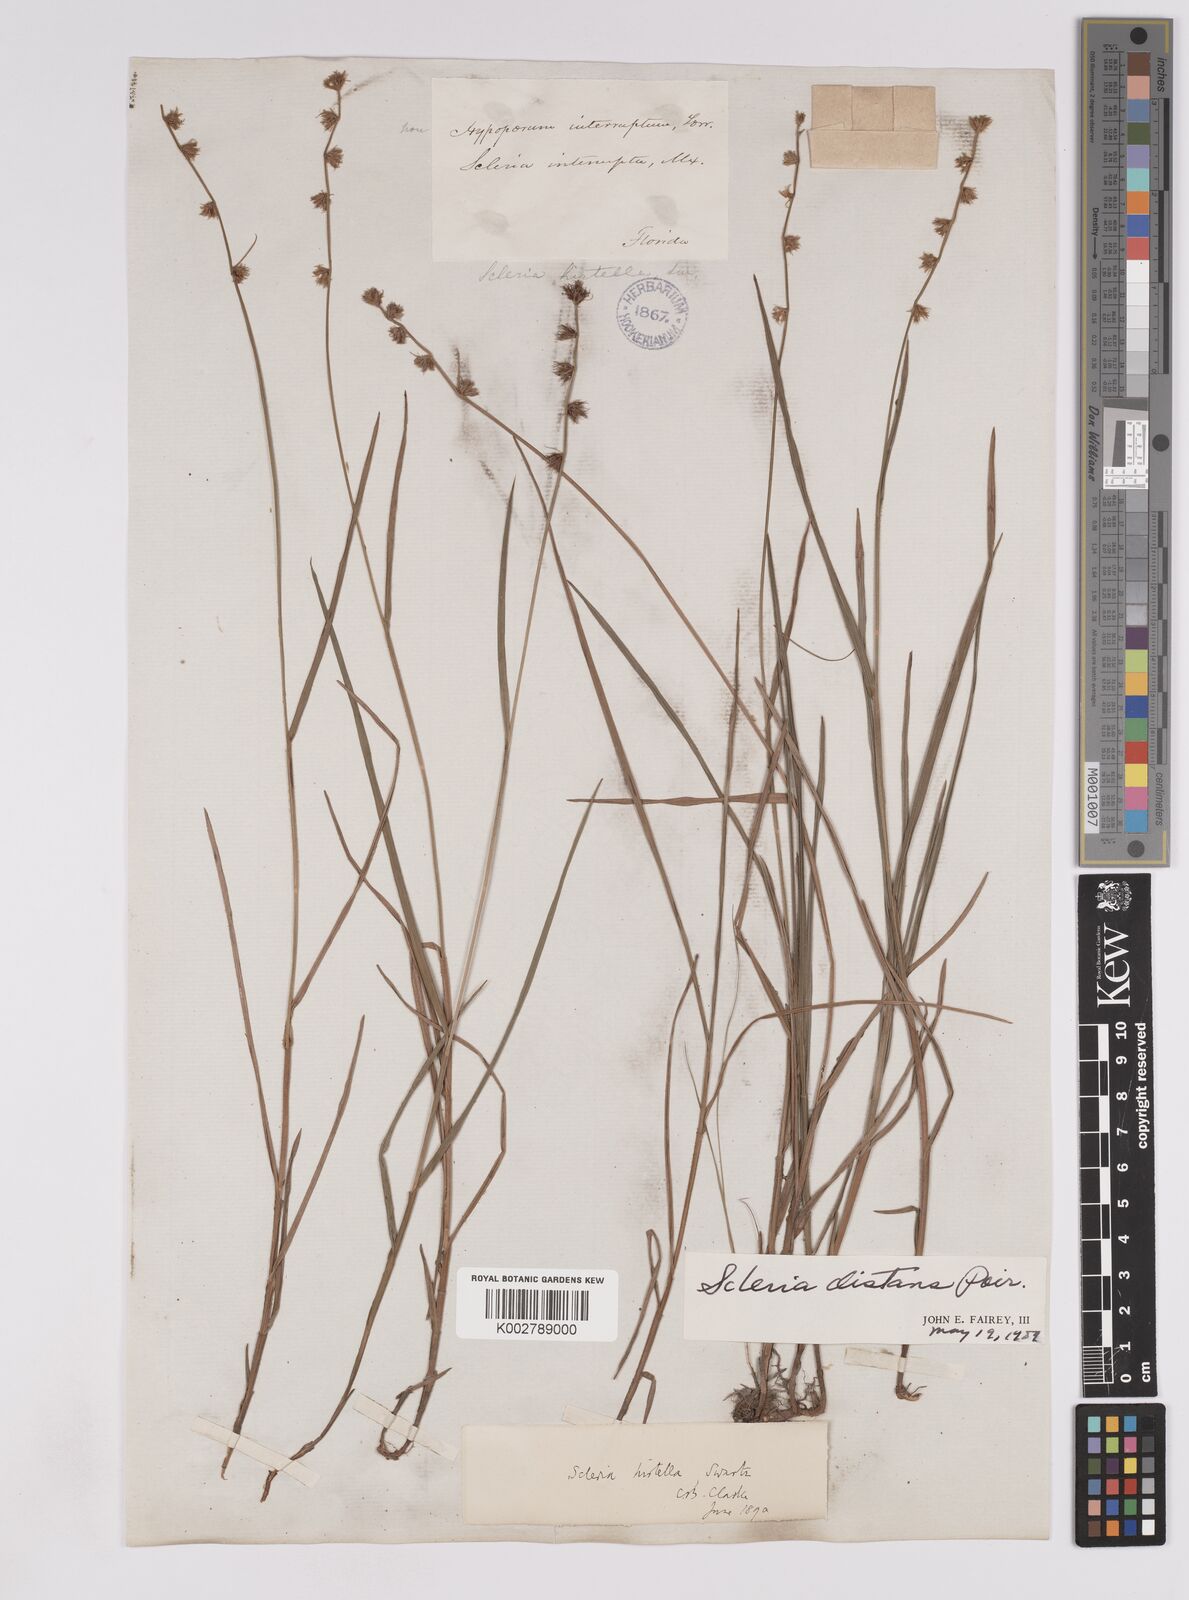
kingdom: Plantae
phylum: Tracheophyta
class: Liliopsida
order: Poales
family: Cyperaceae
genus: Scleria
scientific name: Scleria distans
